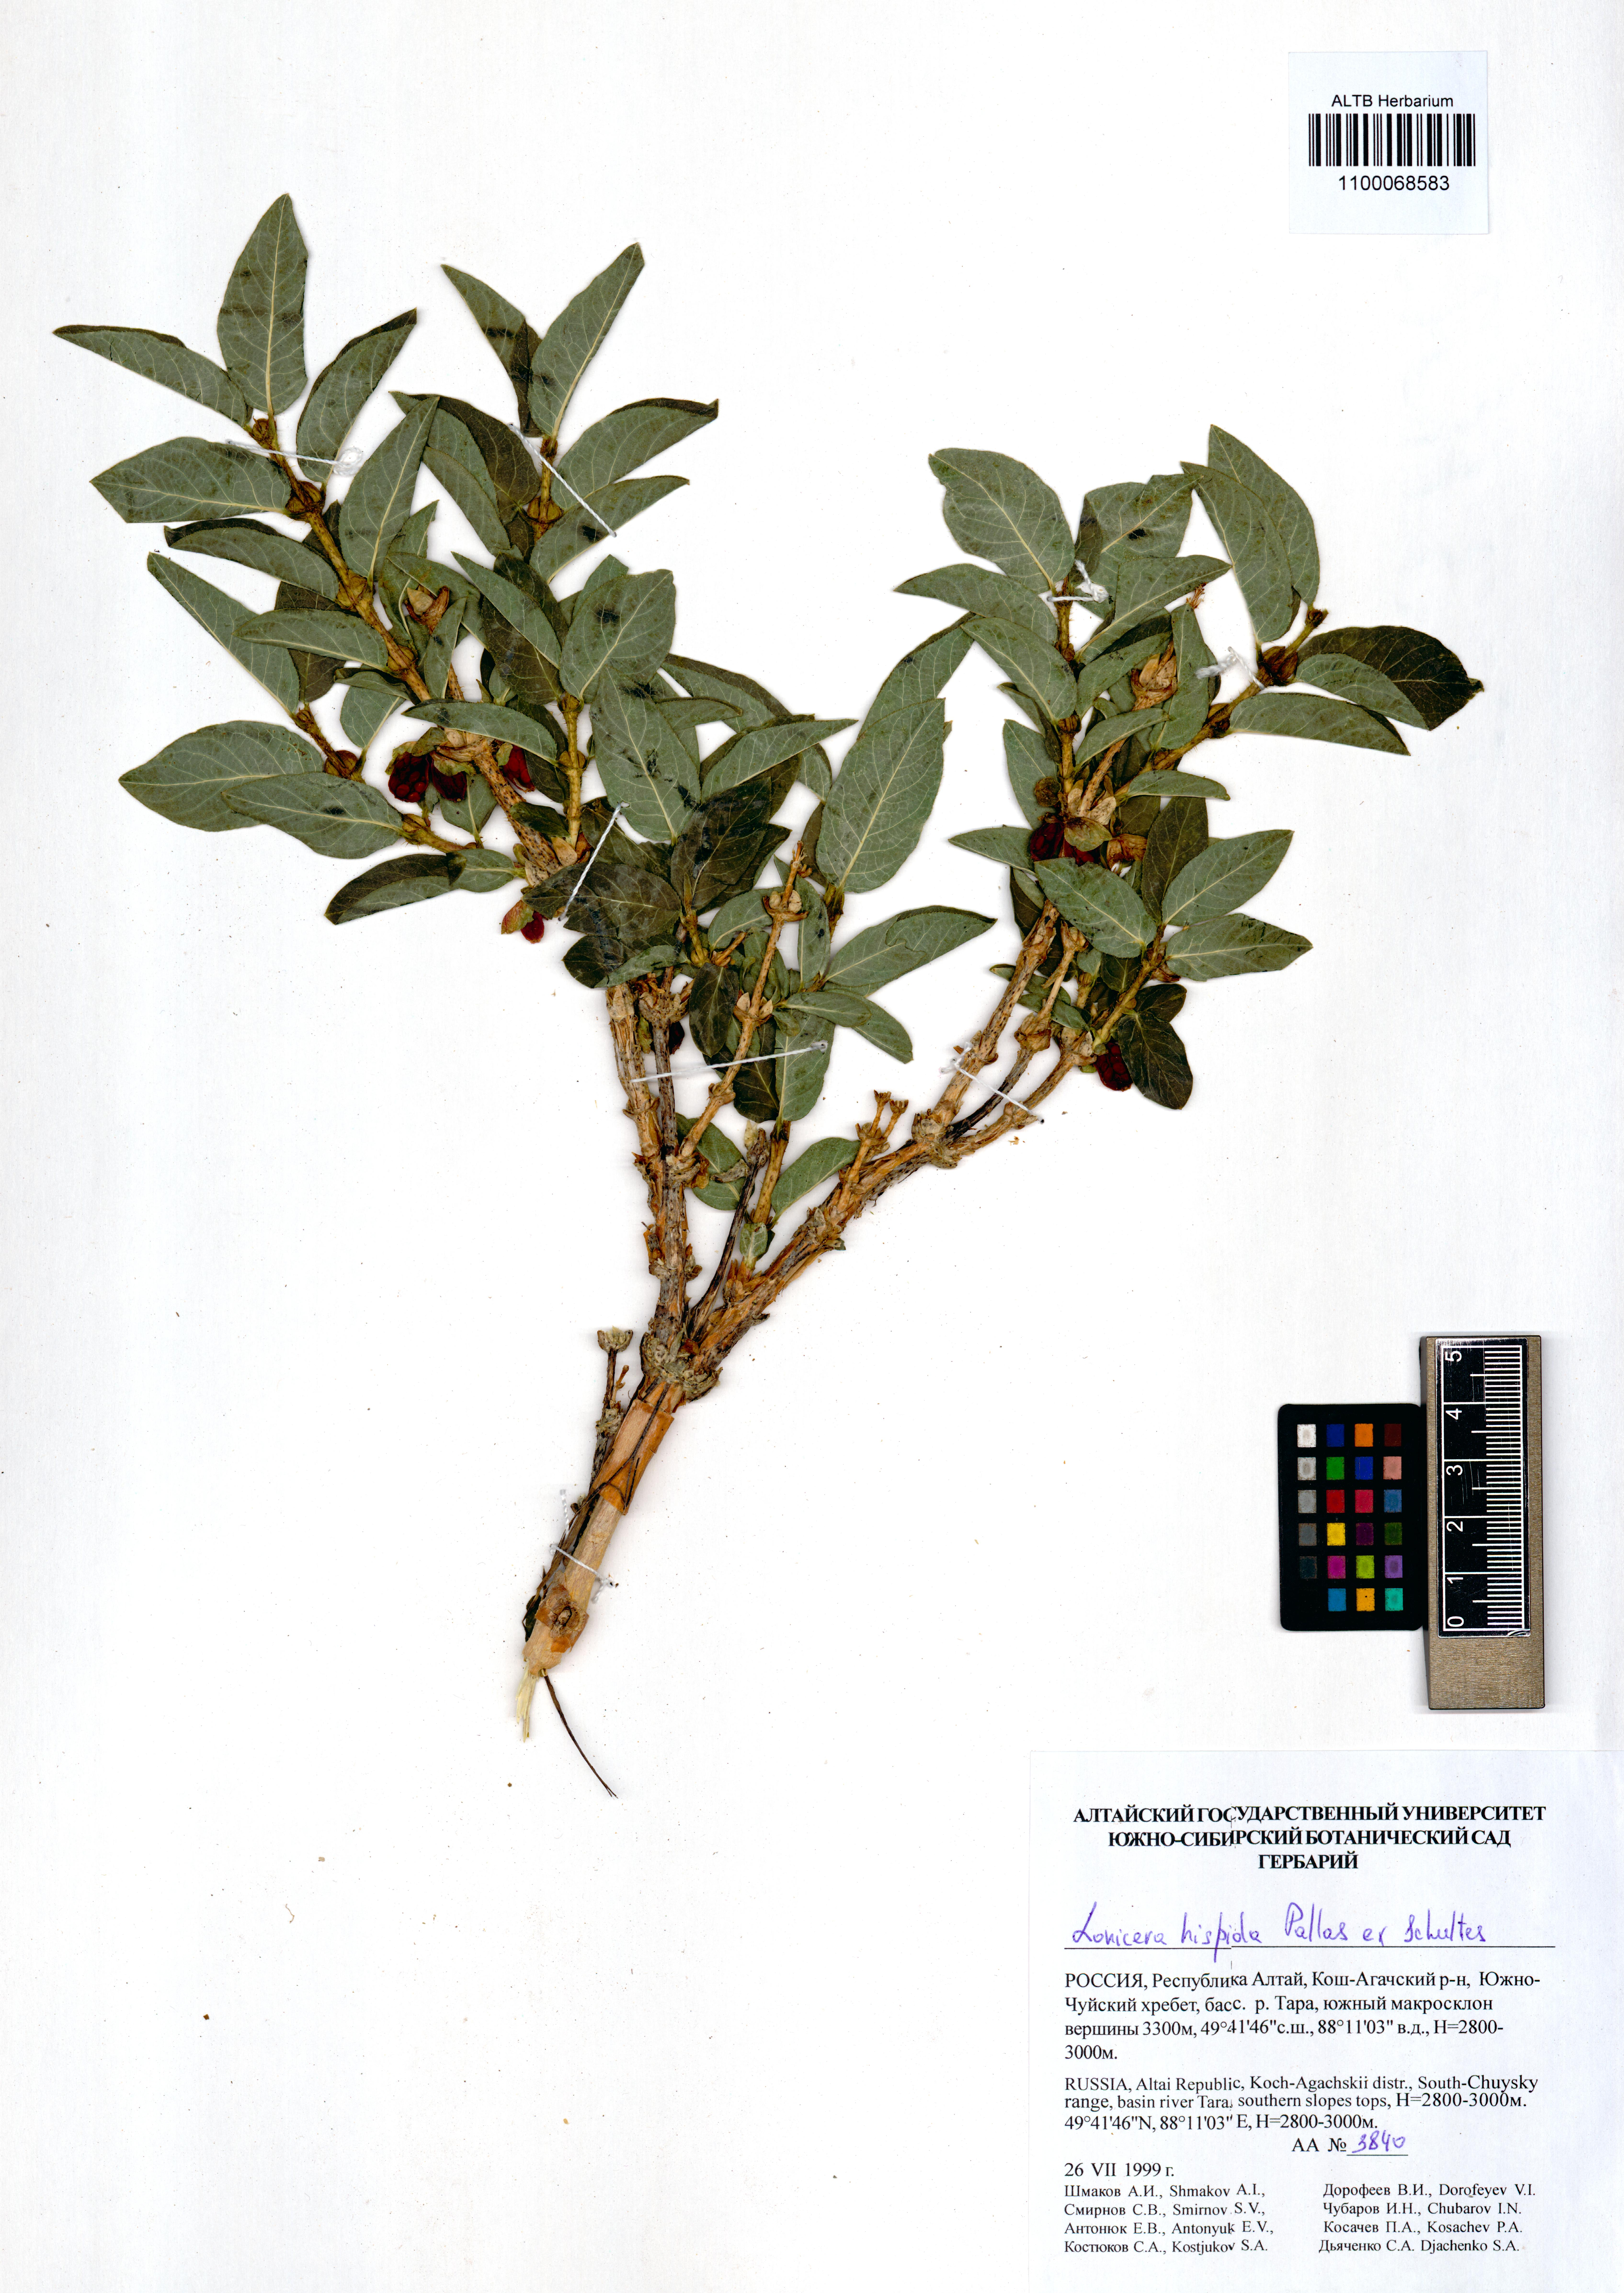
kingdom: Plantae
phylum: Tracheophyta
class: Magnoliopsida
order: Dipsacales
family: Caprifoliaceae
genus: Lonicera
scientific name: Lonicera hispida
